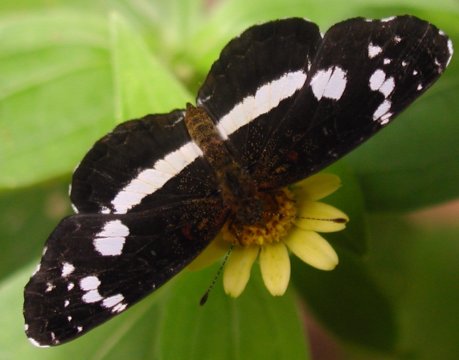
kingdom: Animalia
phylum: Arthropoda
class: Insecta
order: Lepidoptera
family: Nymphalidae
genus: Castilia
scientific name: Castilia myia
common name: Mayan Crescent
